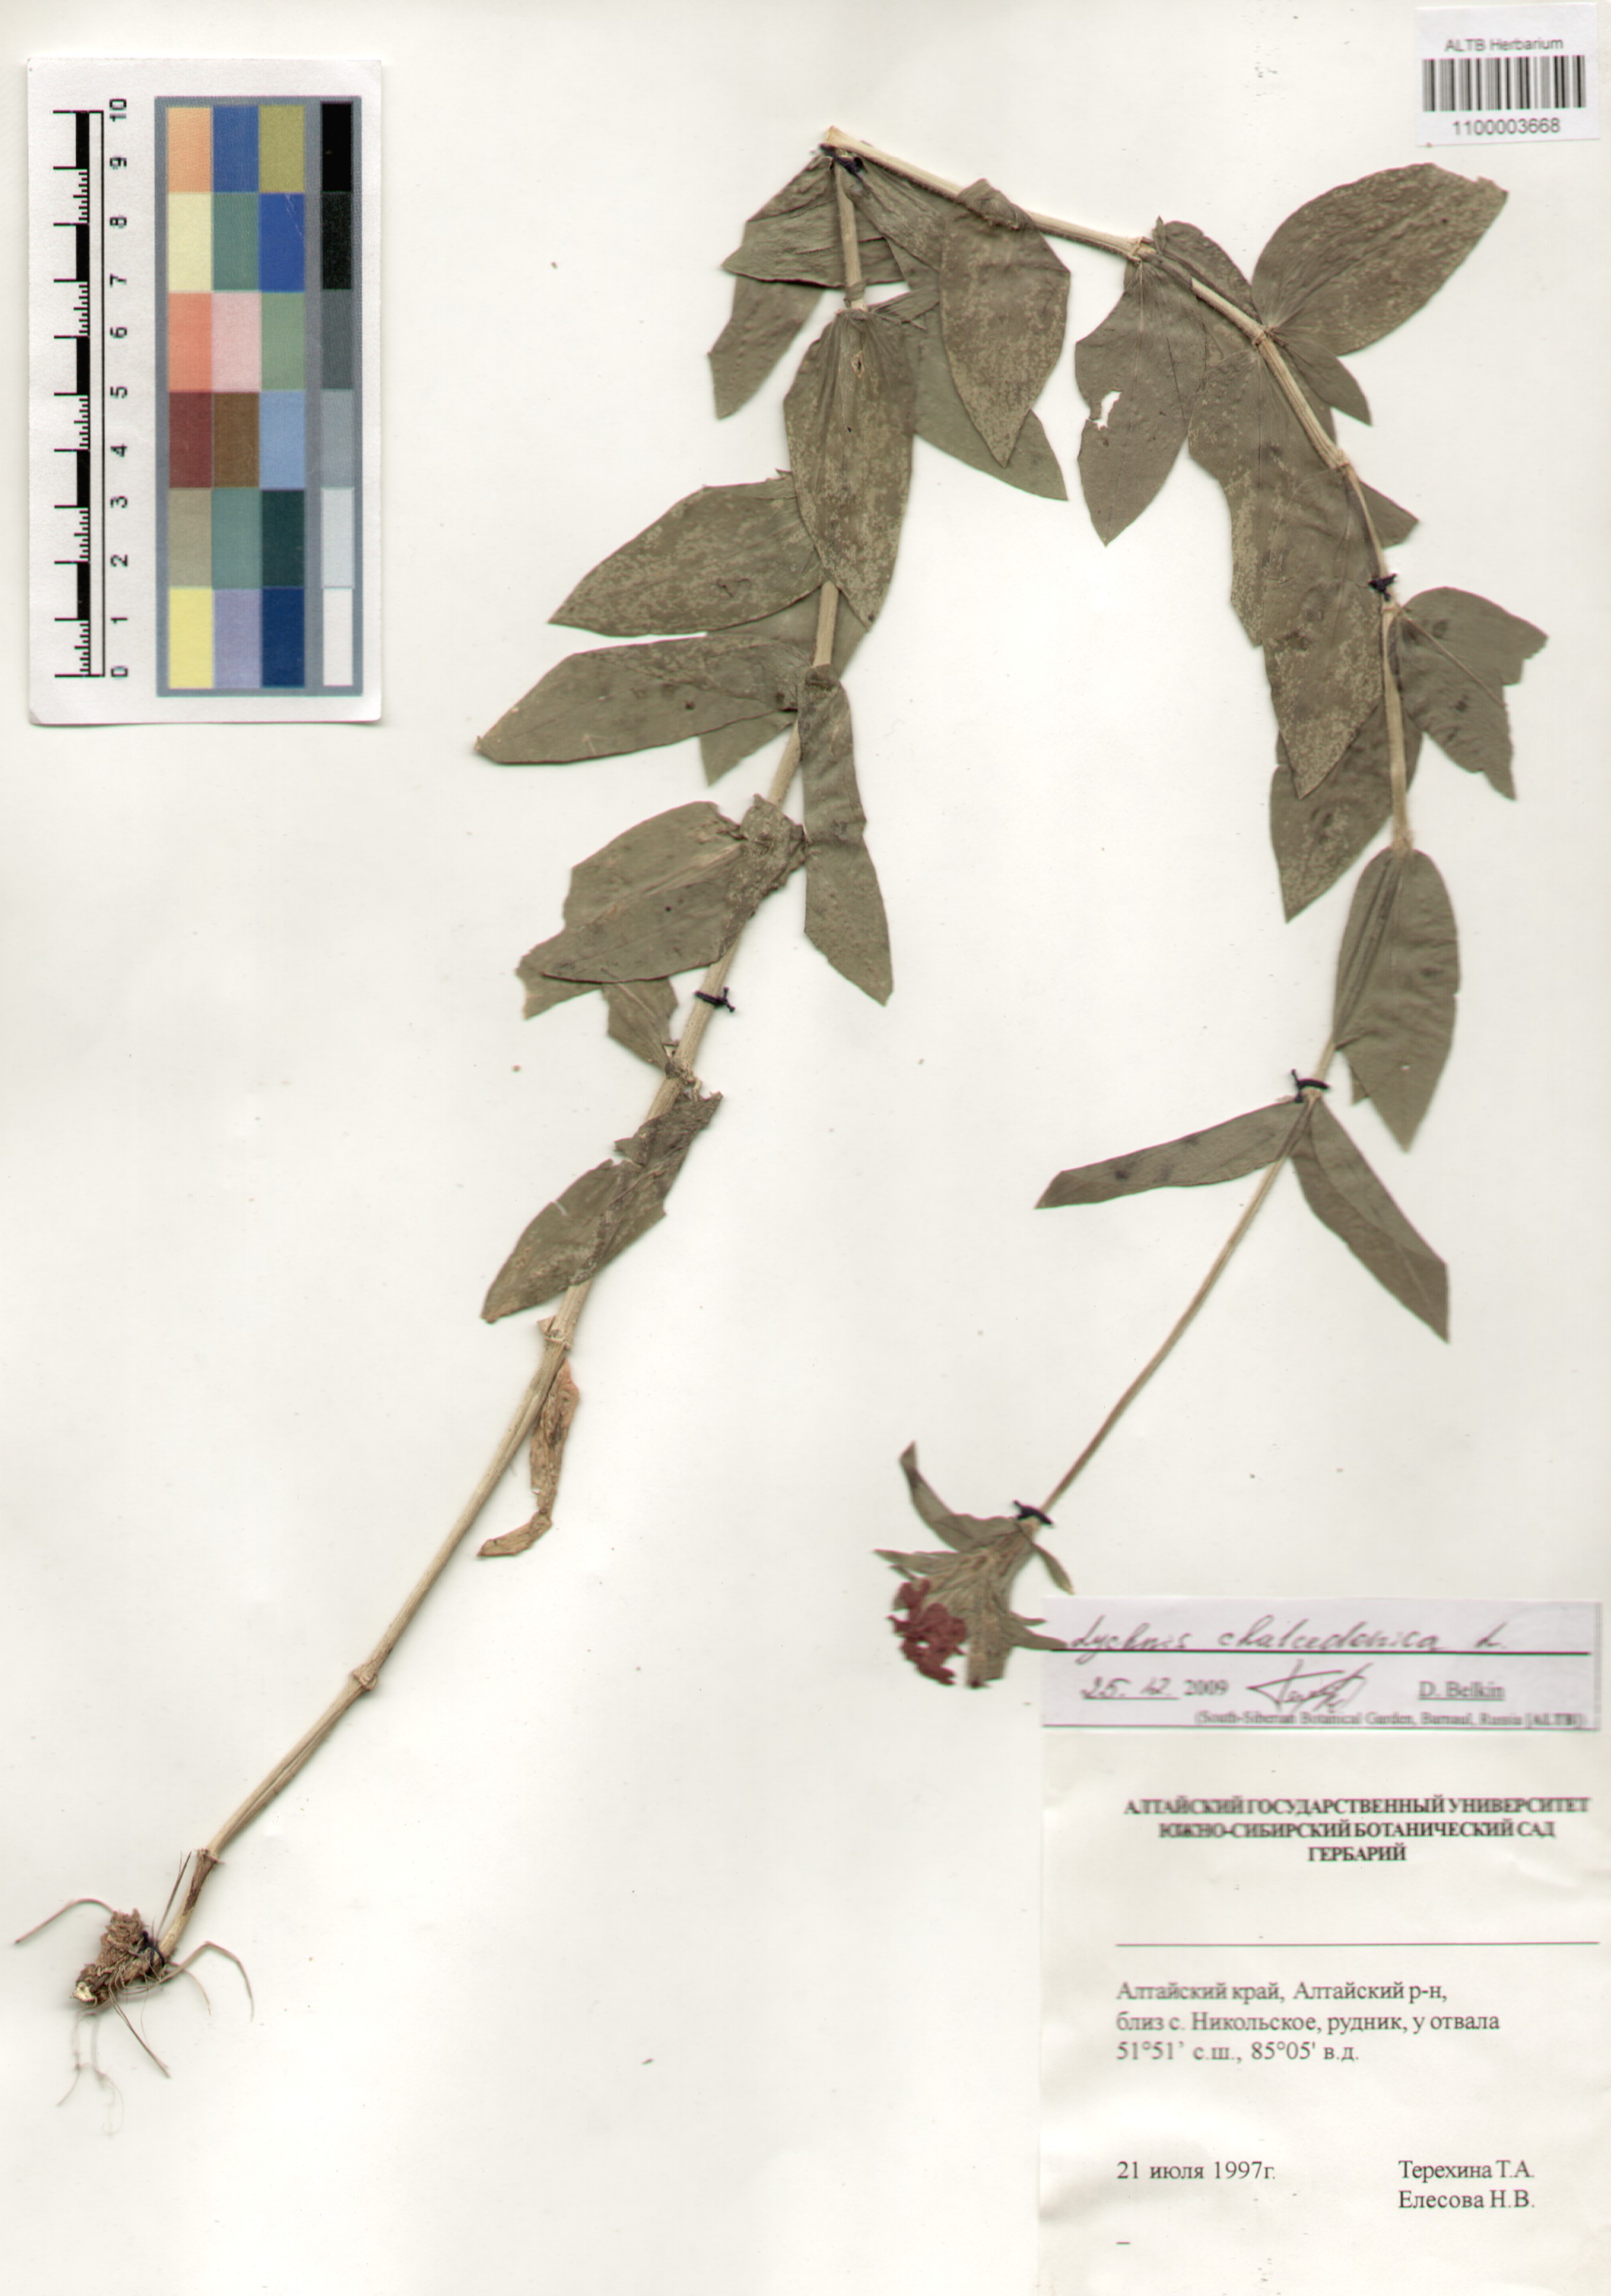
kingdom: Plantae
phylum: Tracheophyta
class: Magnoliopsida
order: Caryophyllales
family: Caryophyllaceae
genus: Silene
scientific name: Silene chalcedonica
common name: Maltese-cross
